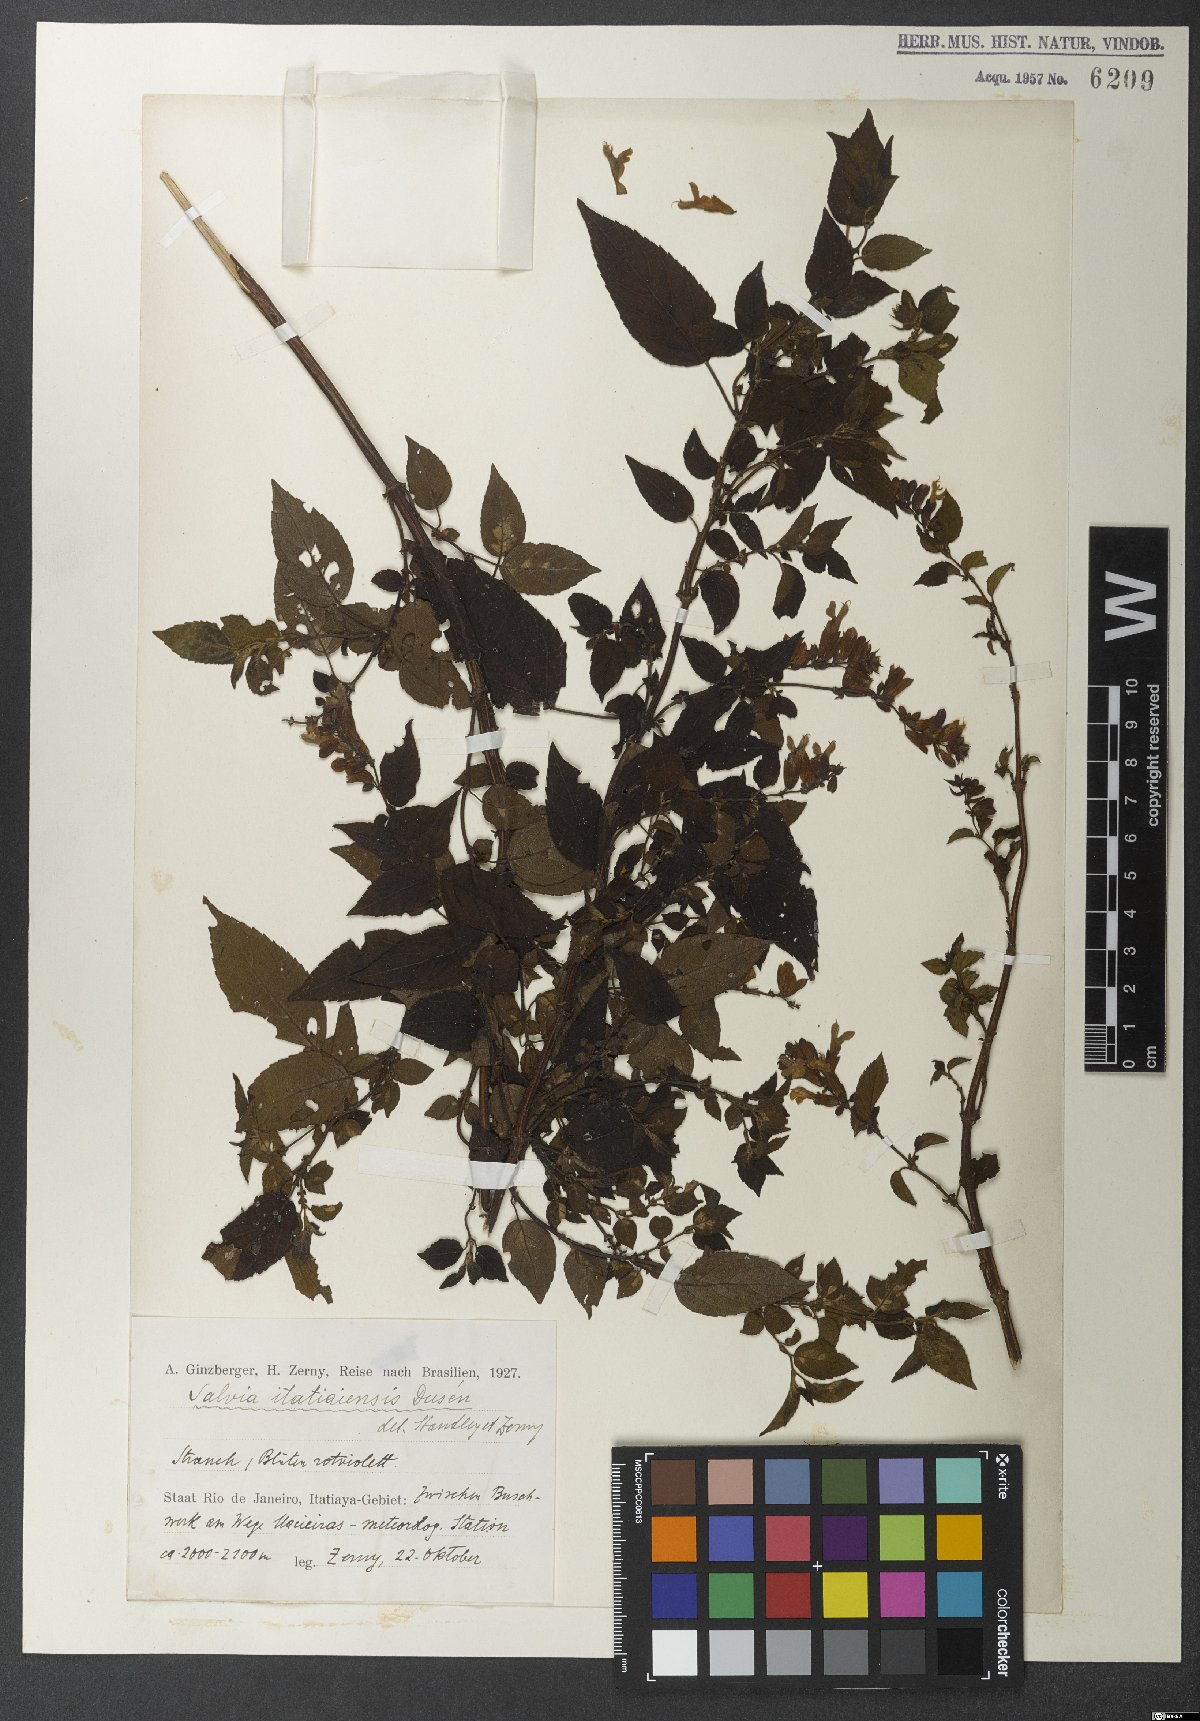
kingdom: Plantae
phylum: Tracheophyta
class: Magnoliopsida
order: Lamiales
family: Lamiaceae
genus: Salvia
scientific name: Salvia itatiaiensis
